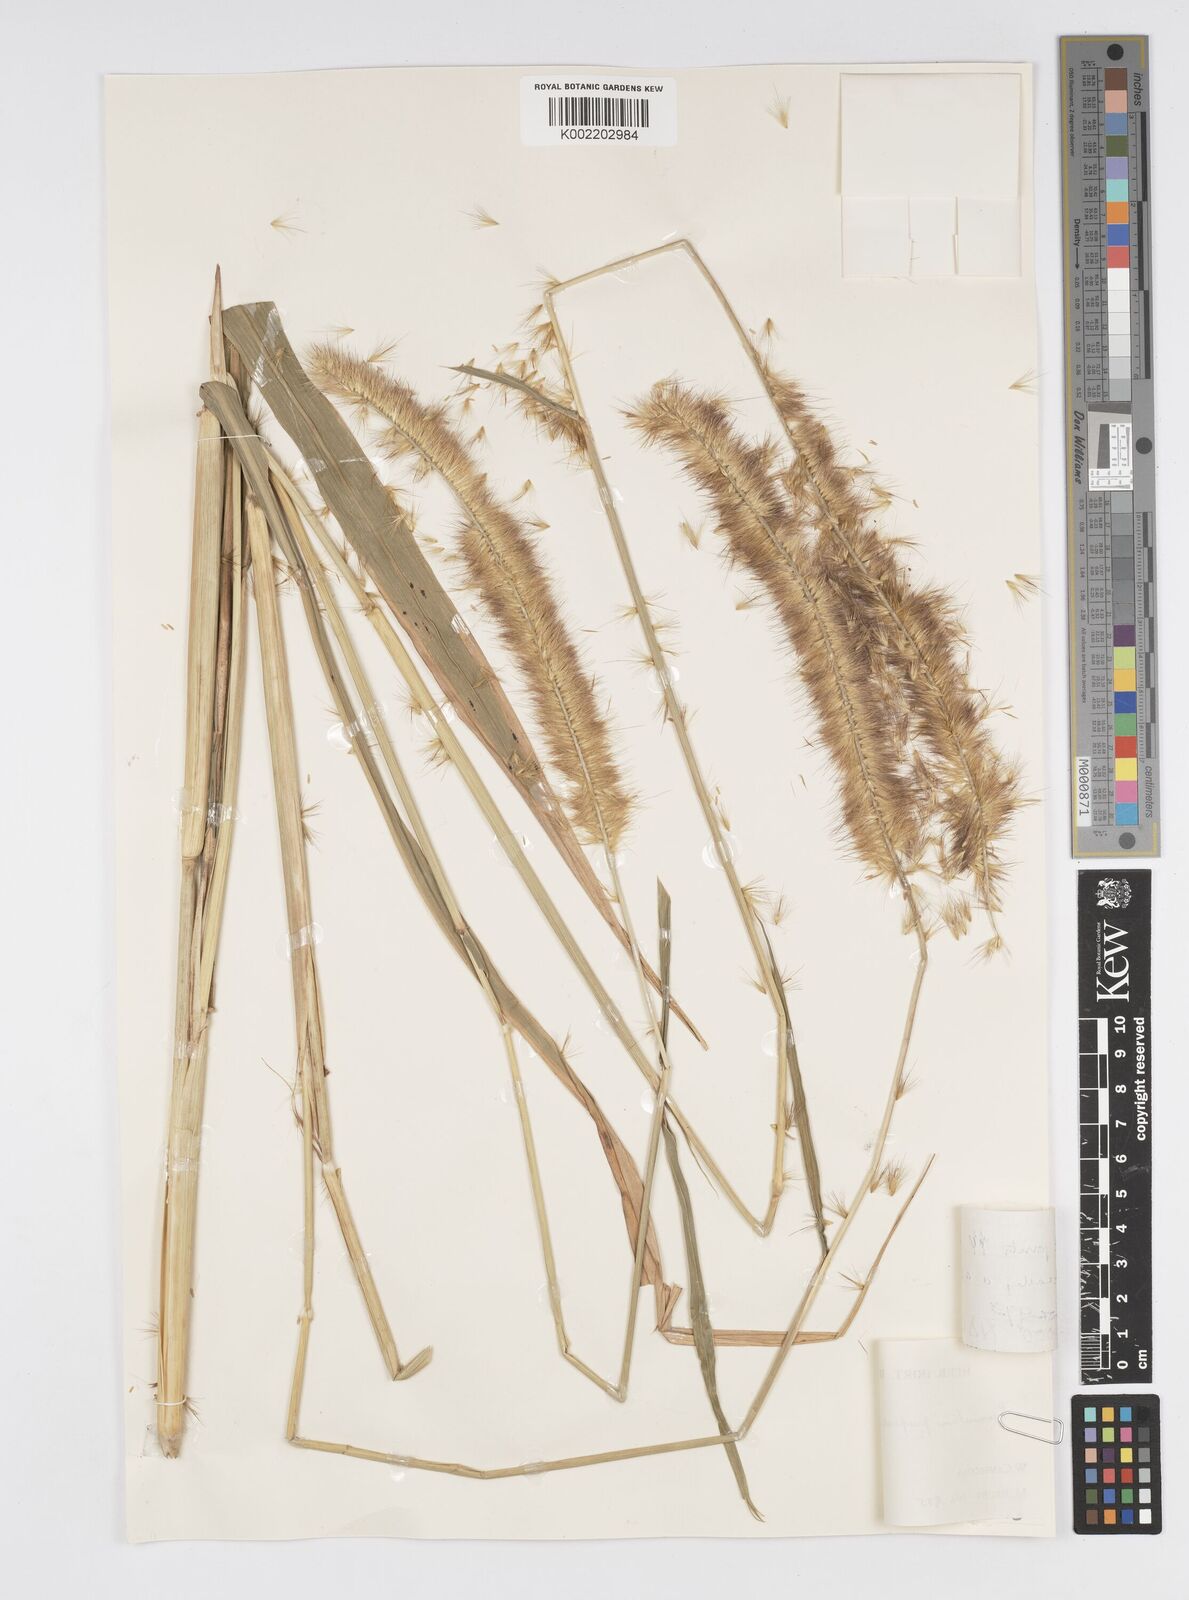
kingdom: Plantae
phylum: Tracheophyta
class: Liliopsida
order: Poales
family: Poaceae
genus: Cenchrus
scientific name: Cenchrus purpureus
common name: Elephant grass
